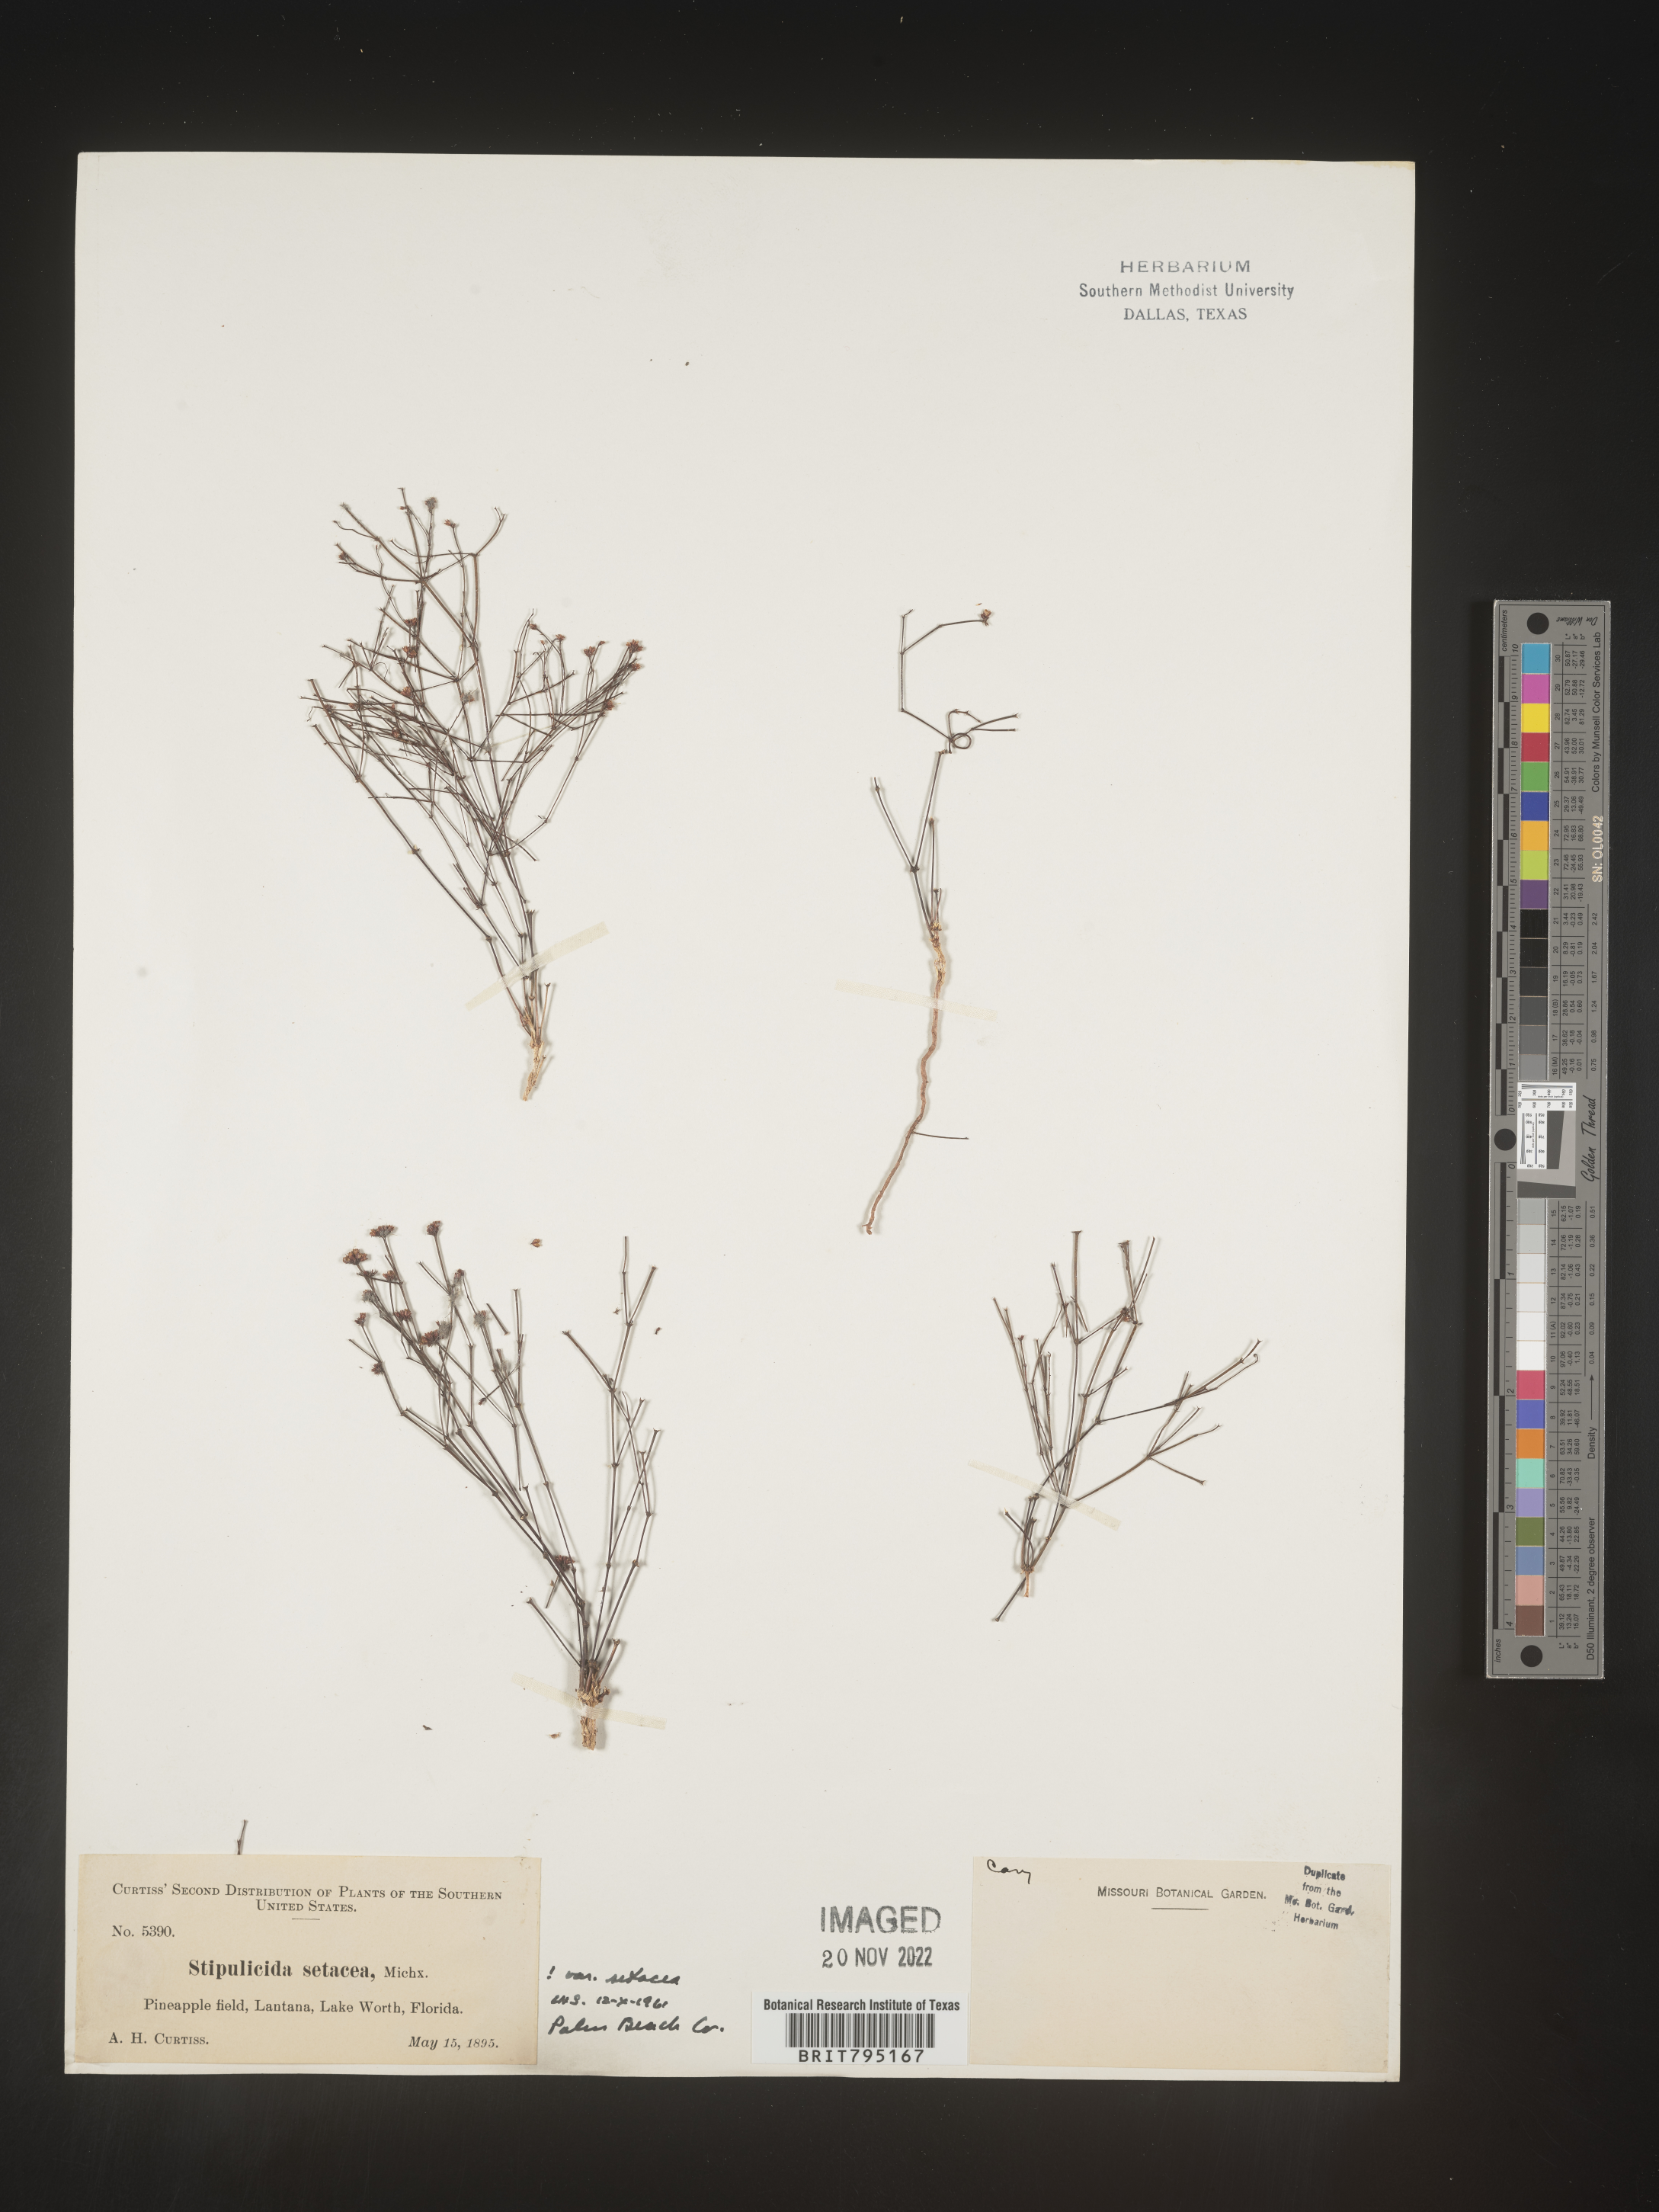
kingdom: Plantae
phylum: Tracheophyta
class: Magnoliopsida
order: Caryophyllales
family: Caryophyllaceae
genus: Stipulicida
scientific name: Stipulicida
